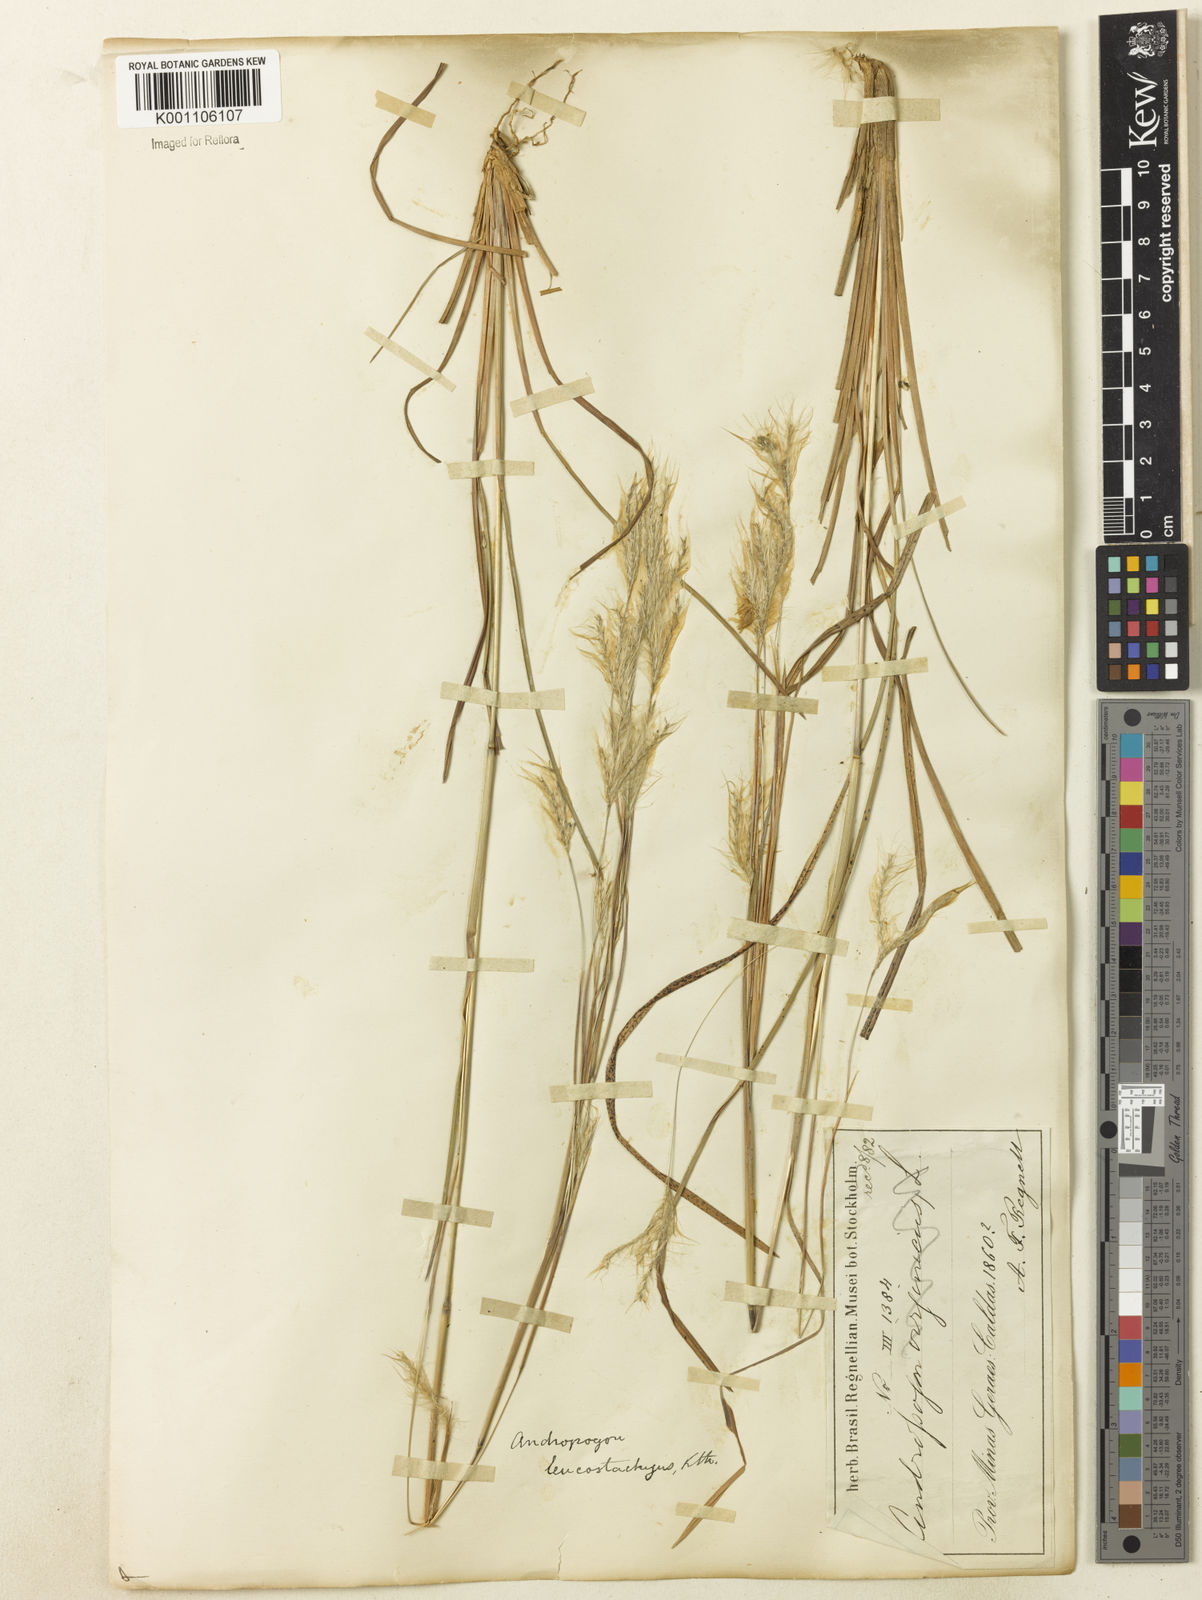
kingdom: Plantae
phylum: Tracheophyta
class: Liliopsida
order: Poales
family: Poaceae
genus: Andropogon
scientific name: Andropogon leucostachyus
